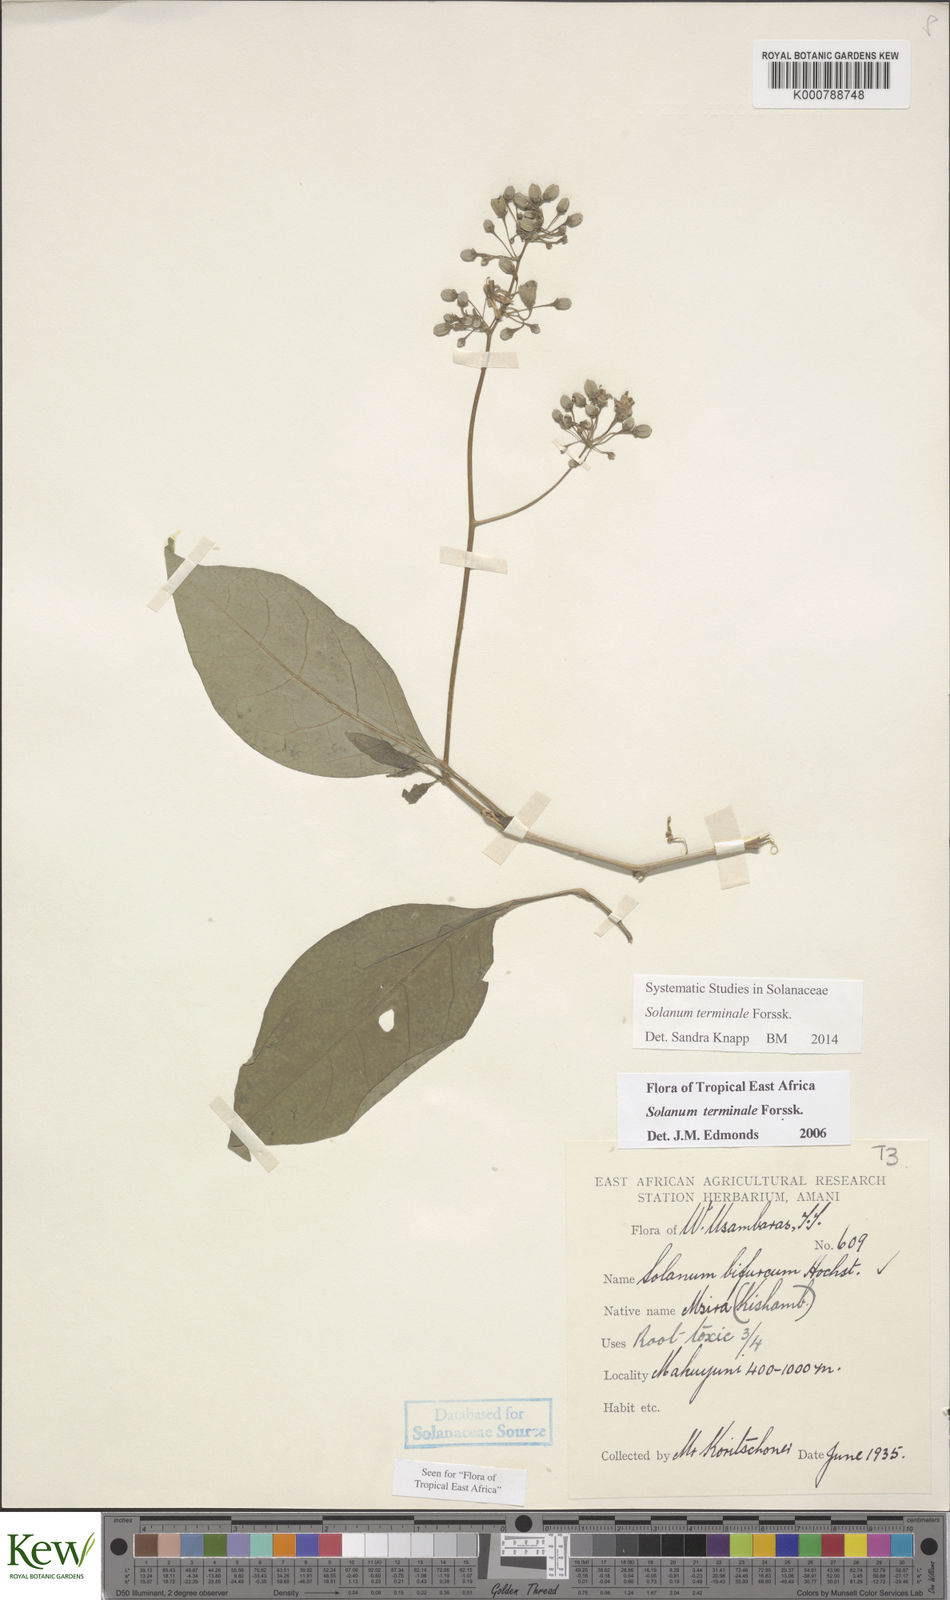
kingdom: Plantae
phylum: Tracheophyta
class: Magnoliopsida
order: Solanales
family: Solanaceae
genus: Solanum
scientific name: Solanum terminale
